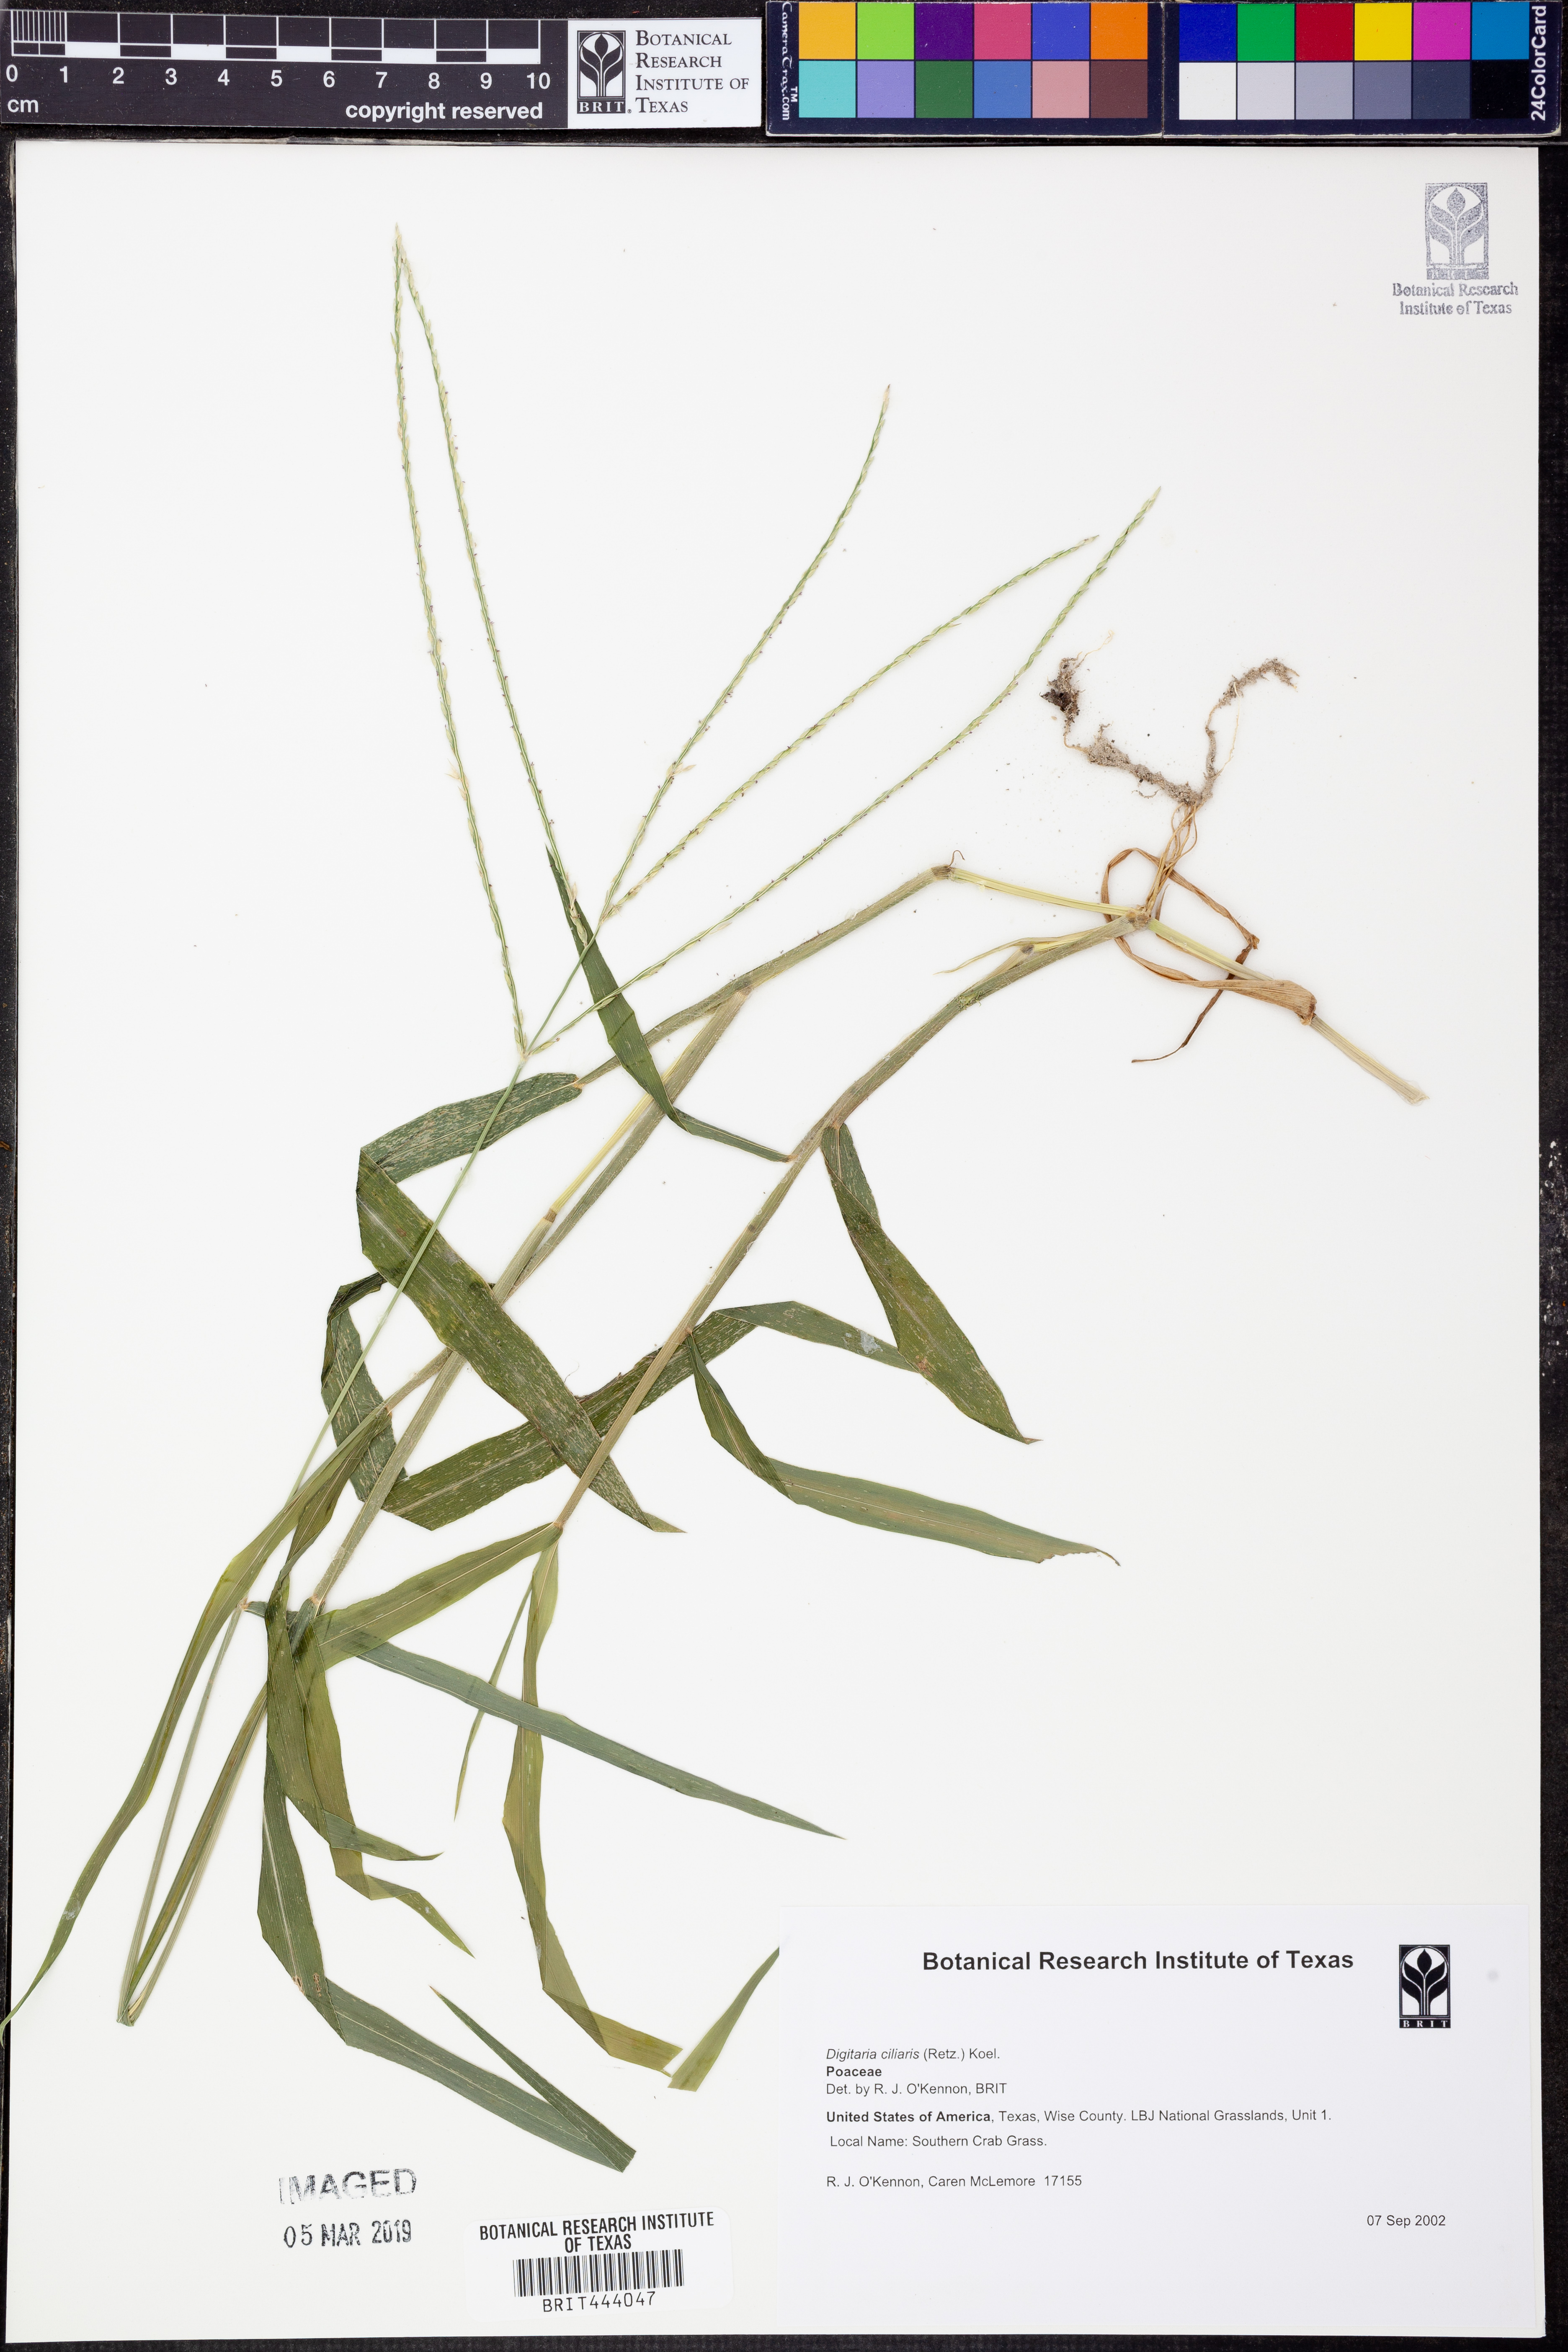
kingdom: Plantae
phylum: Tracheophyta
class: Liliopsida
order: Poales
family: Poaceae
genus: Digitaria
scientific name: Digitaria ciliaris
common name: Tropical finger-grass
